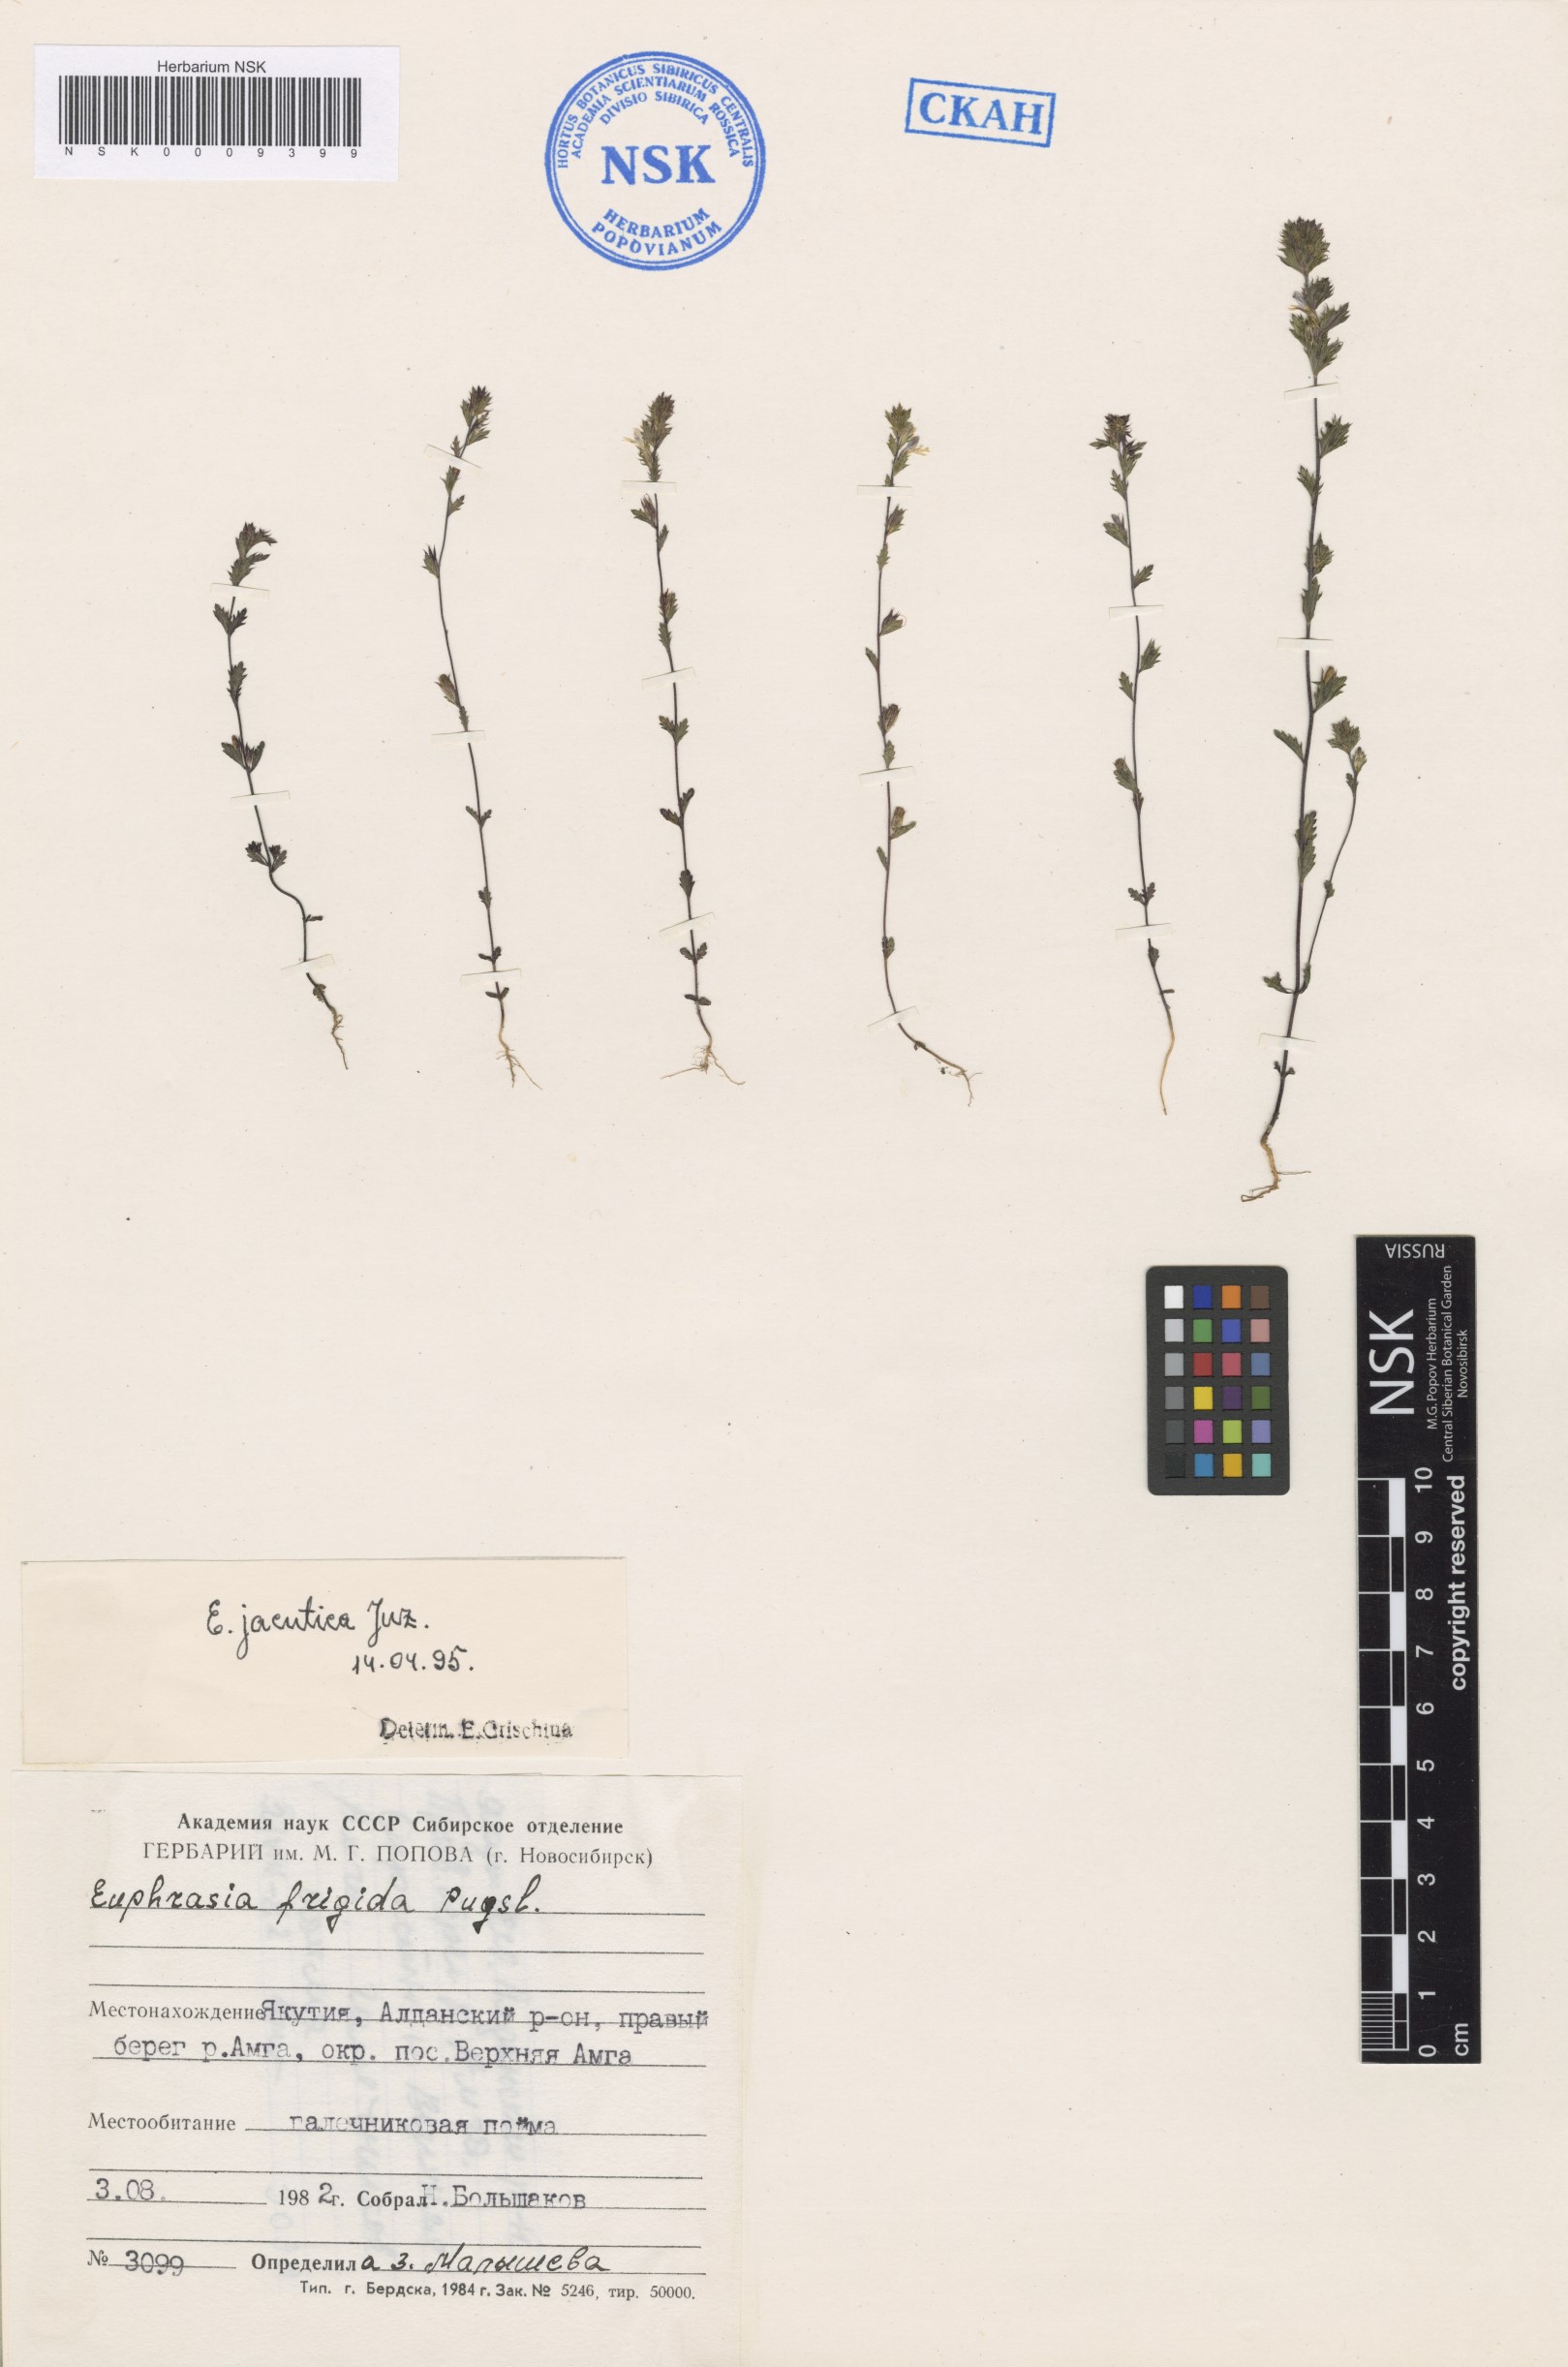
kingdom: Plantae
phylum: Tracheophyta
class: Magnoliopsida
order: Lamiales
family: Orobanchaceae
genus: Euphrasia
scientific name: Euphrasia jacutica
